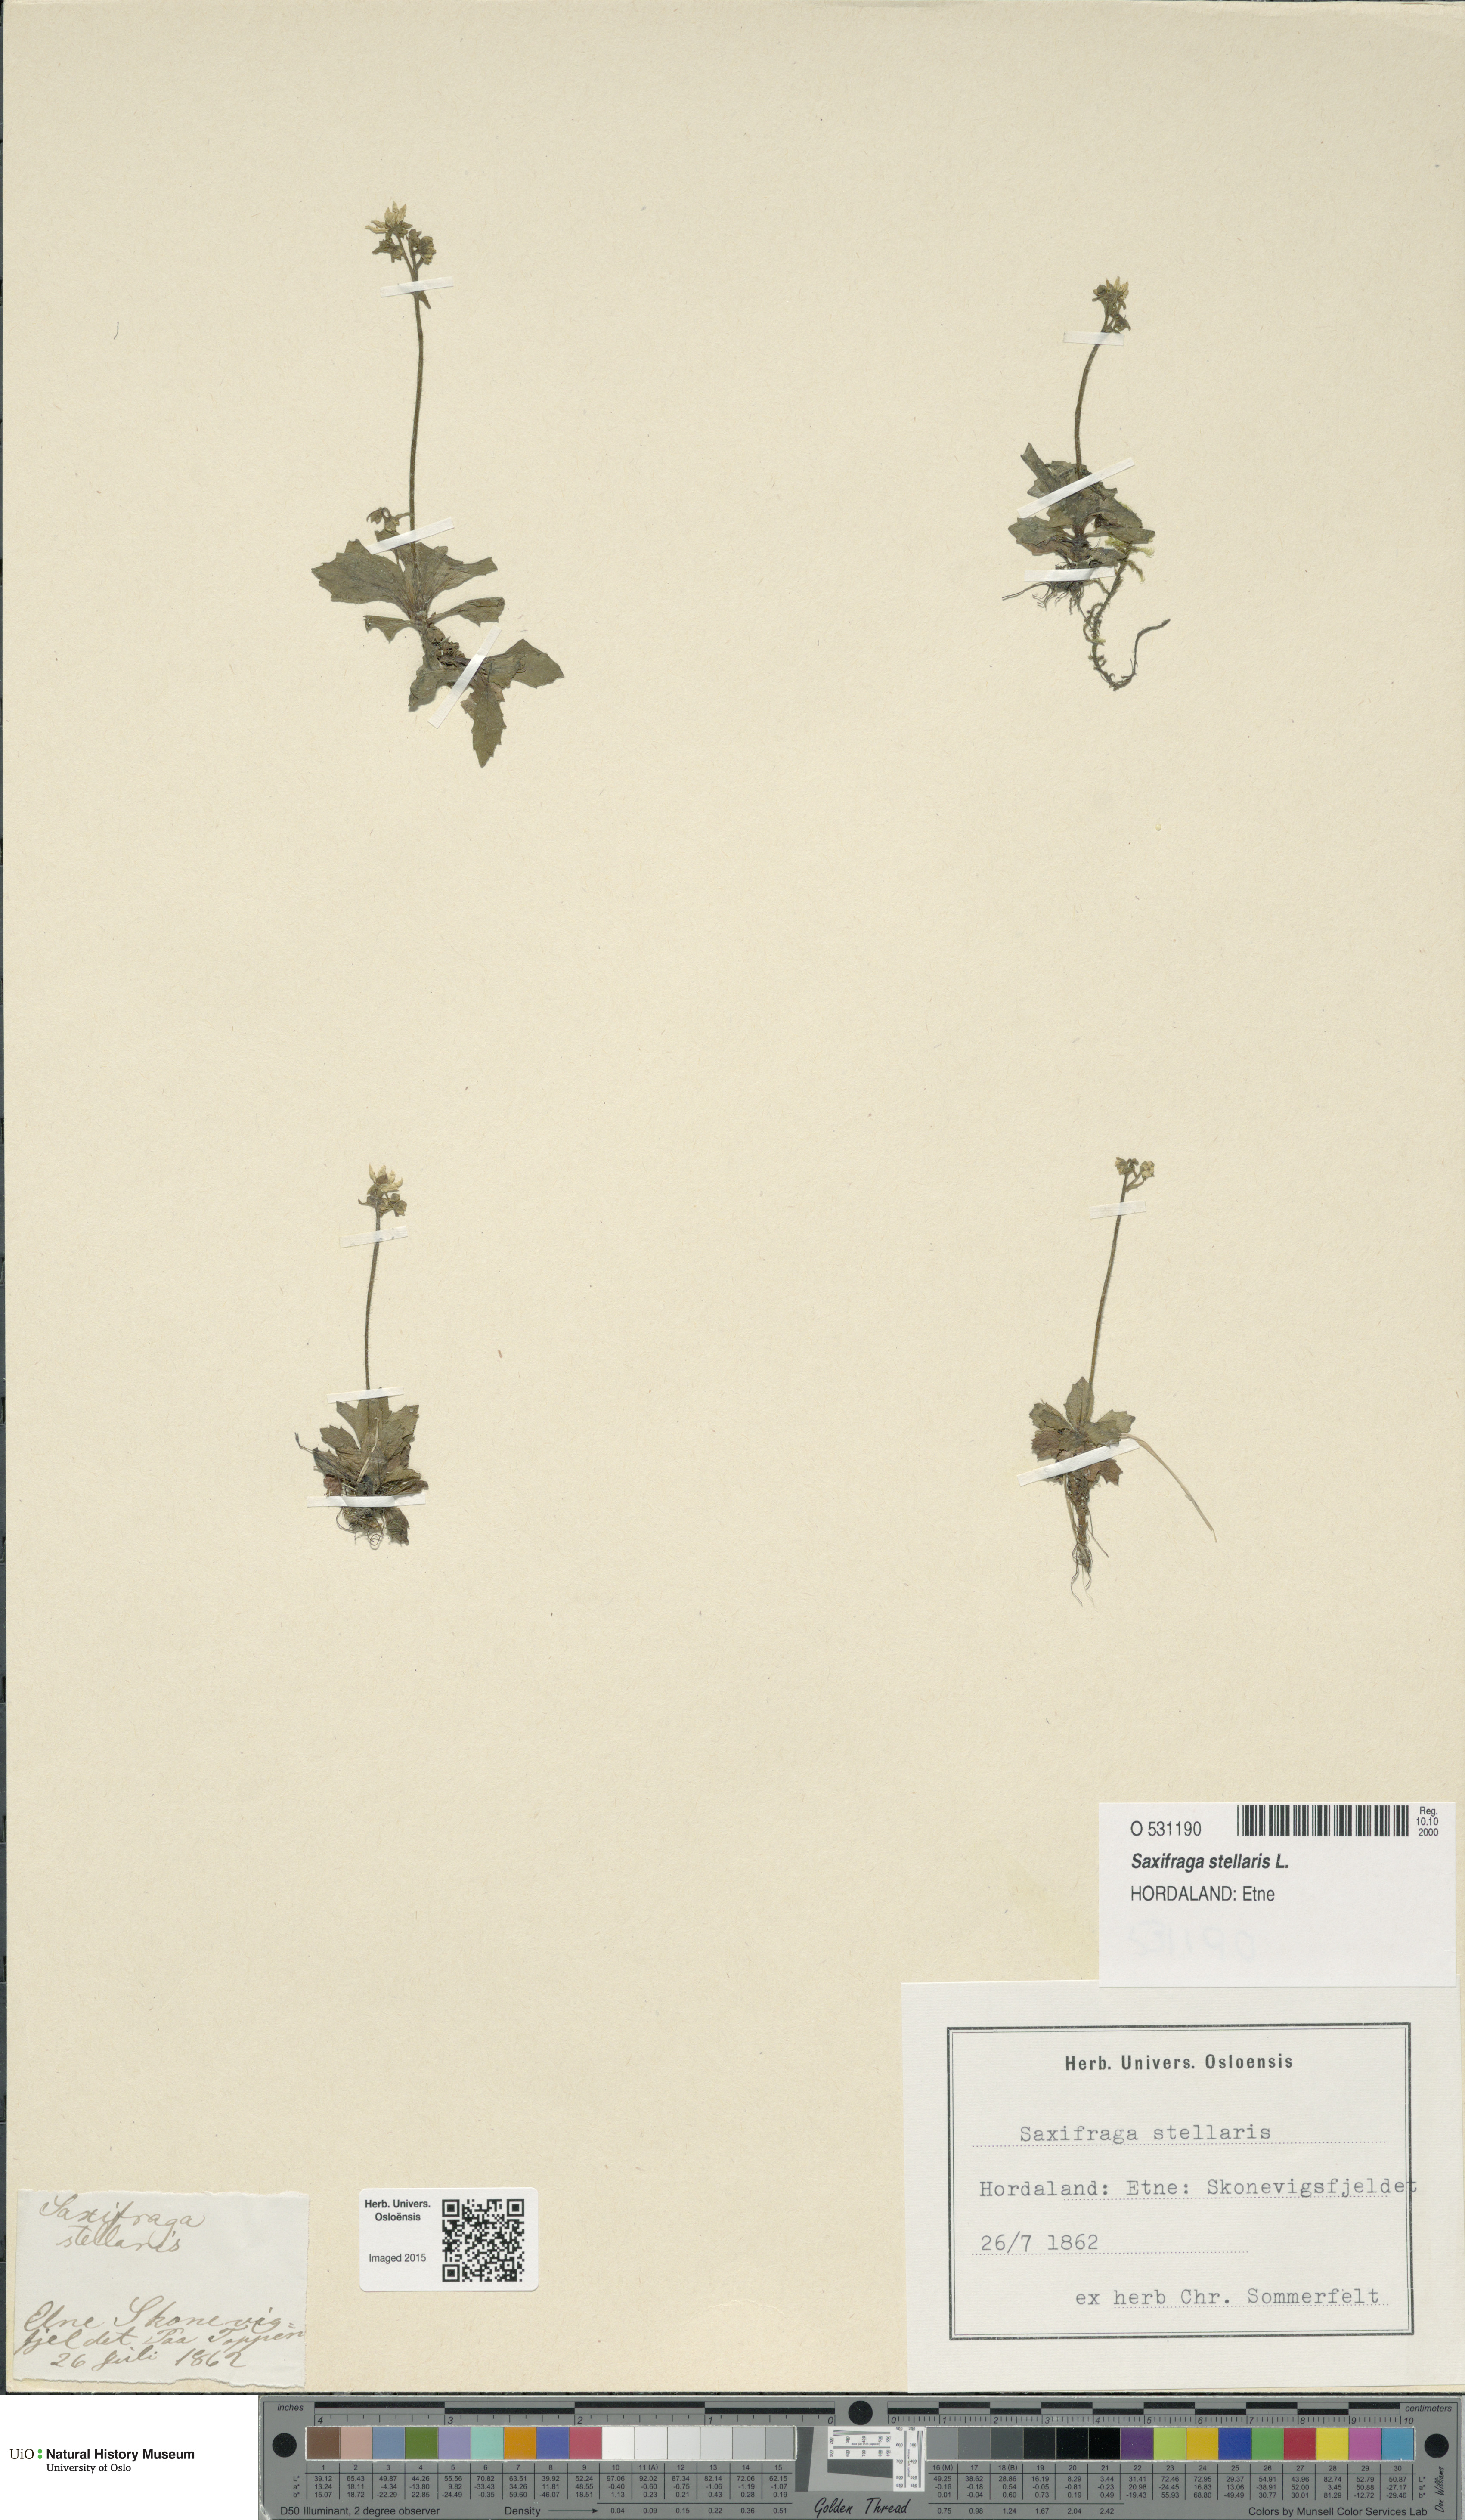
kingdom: Plantae
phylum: Tracheophyta
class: Magnoliopsida
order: Saxifragales
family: Saxifragaceae
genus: Micranthes
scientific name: Micranthes stellaris
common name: Starry saxifrage
